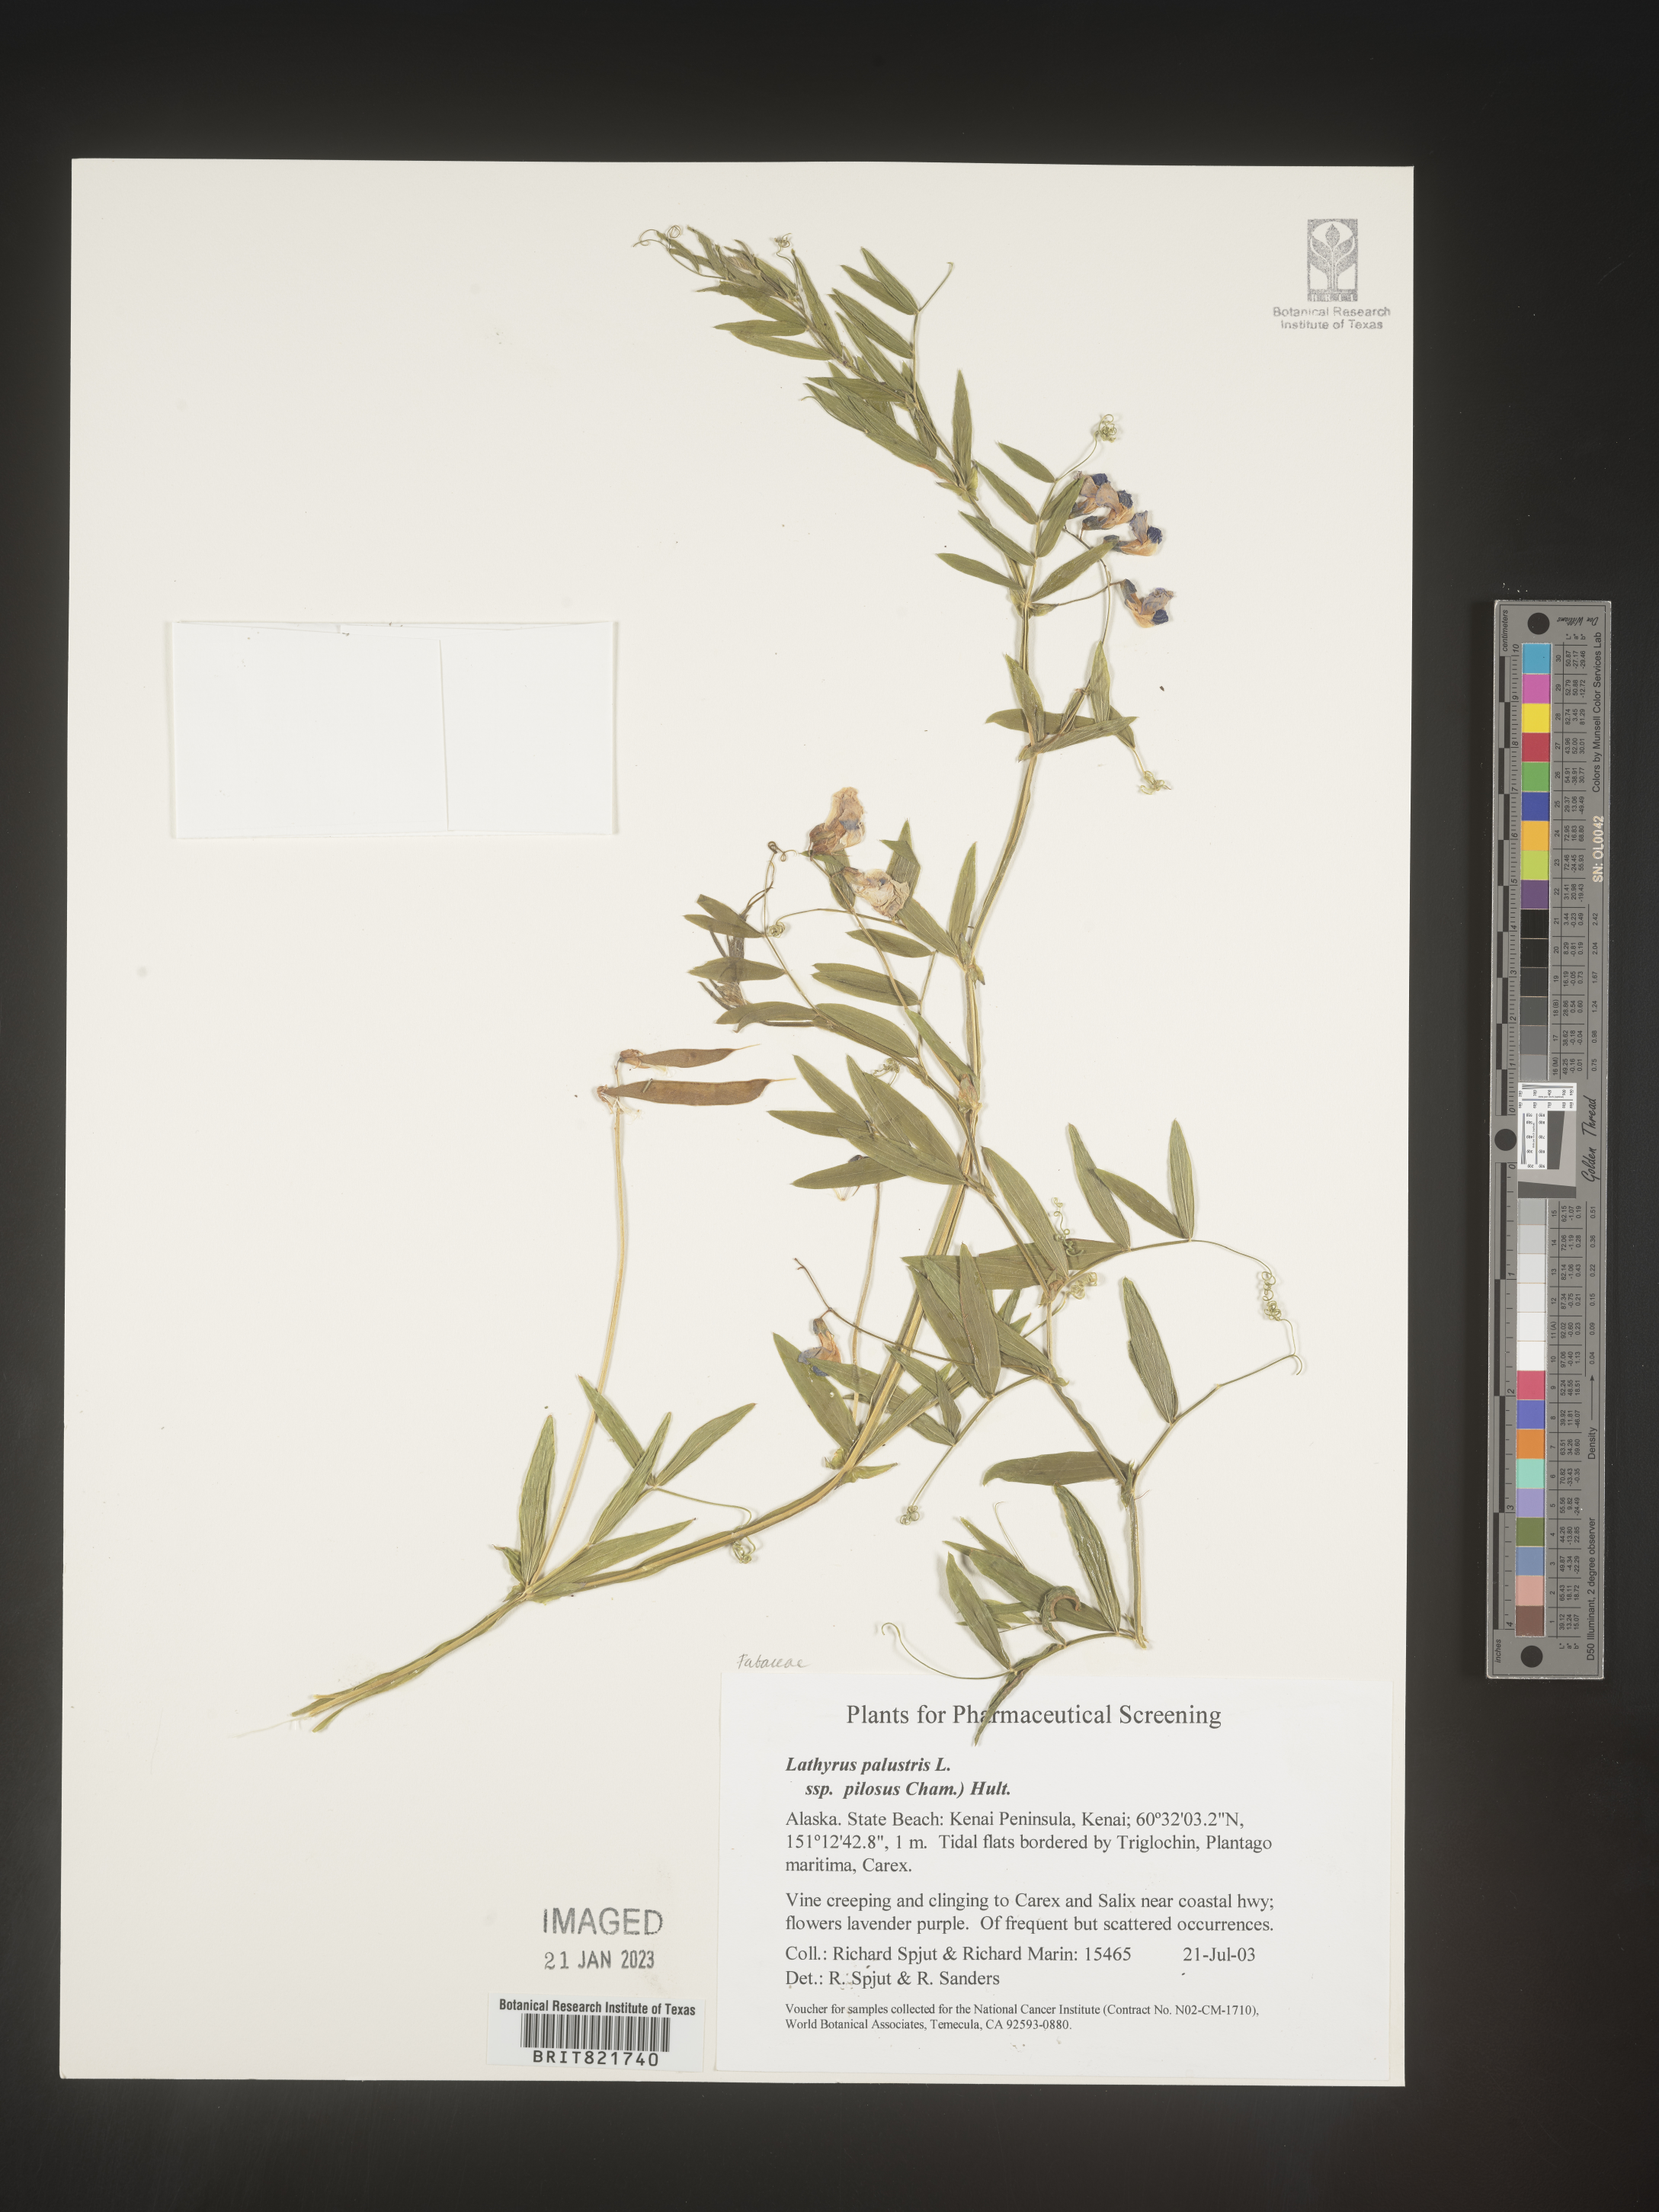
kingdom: Plantae
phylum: Tracheophyta
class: Magnoliopsida
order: Fabales
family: Fabaceae
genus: Lathyrus
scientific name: Lathyrus palustris
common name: Marsh pea
